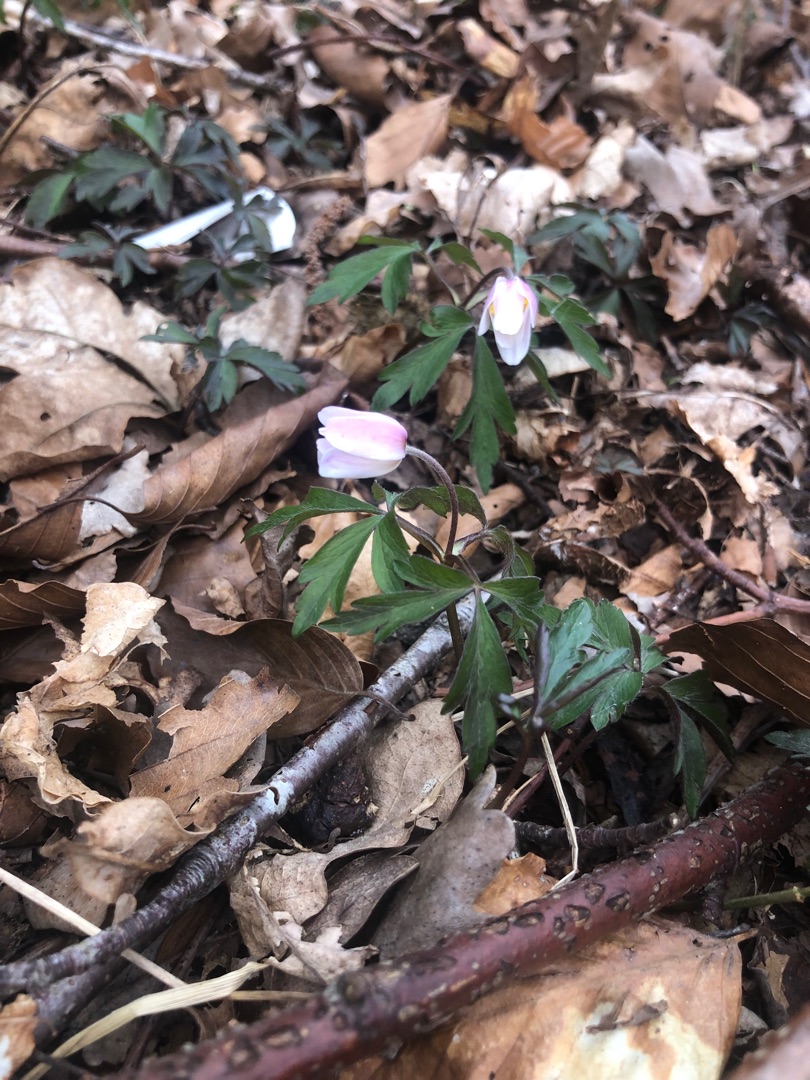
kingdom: Plantae
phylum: Tracheophyta
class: Magnoliopsida
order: Ranunculales
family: Ranunculaceae
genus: Anemone
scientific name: Anemone nemorosa
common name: Hvid anemone
